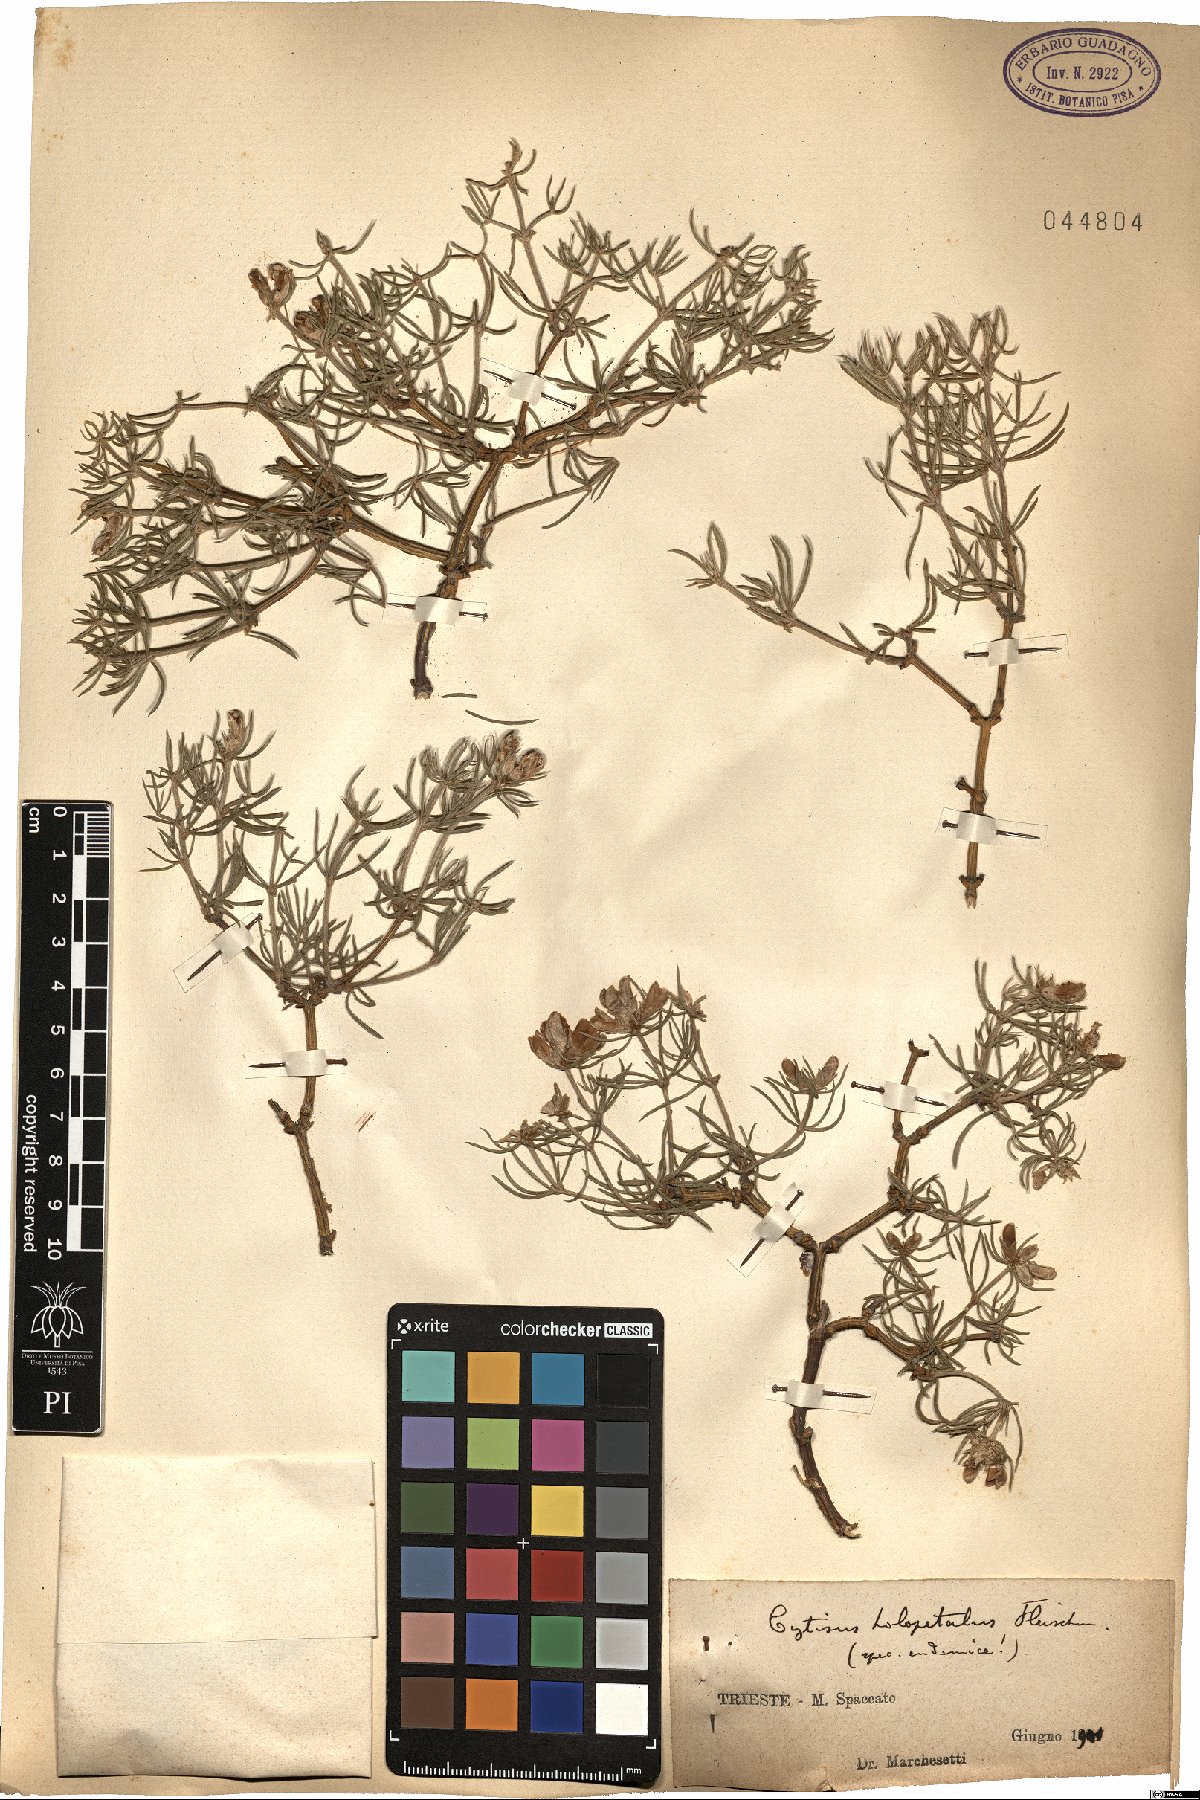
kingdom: Plantae
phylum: Tracheophyta
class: Magnoliopsida
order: Fabales
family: Fabaceae
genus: Genista
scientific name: Genista holopetala
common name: Entire-petalled gorse
